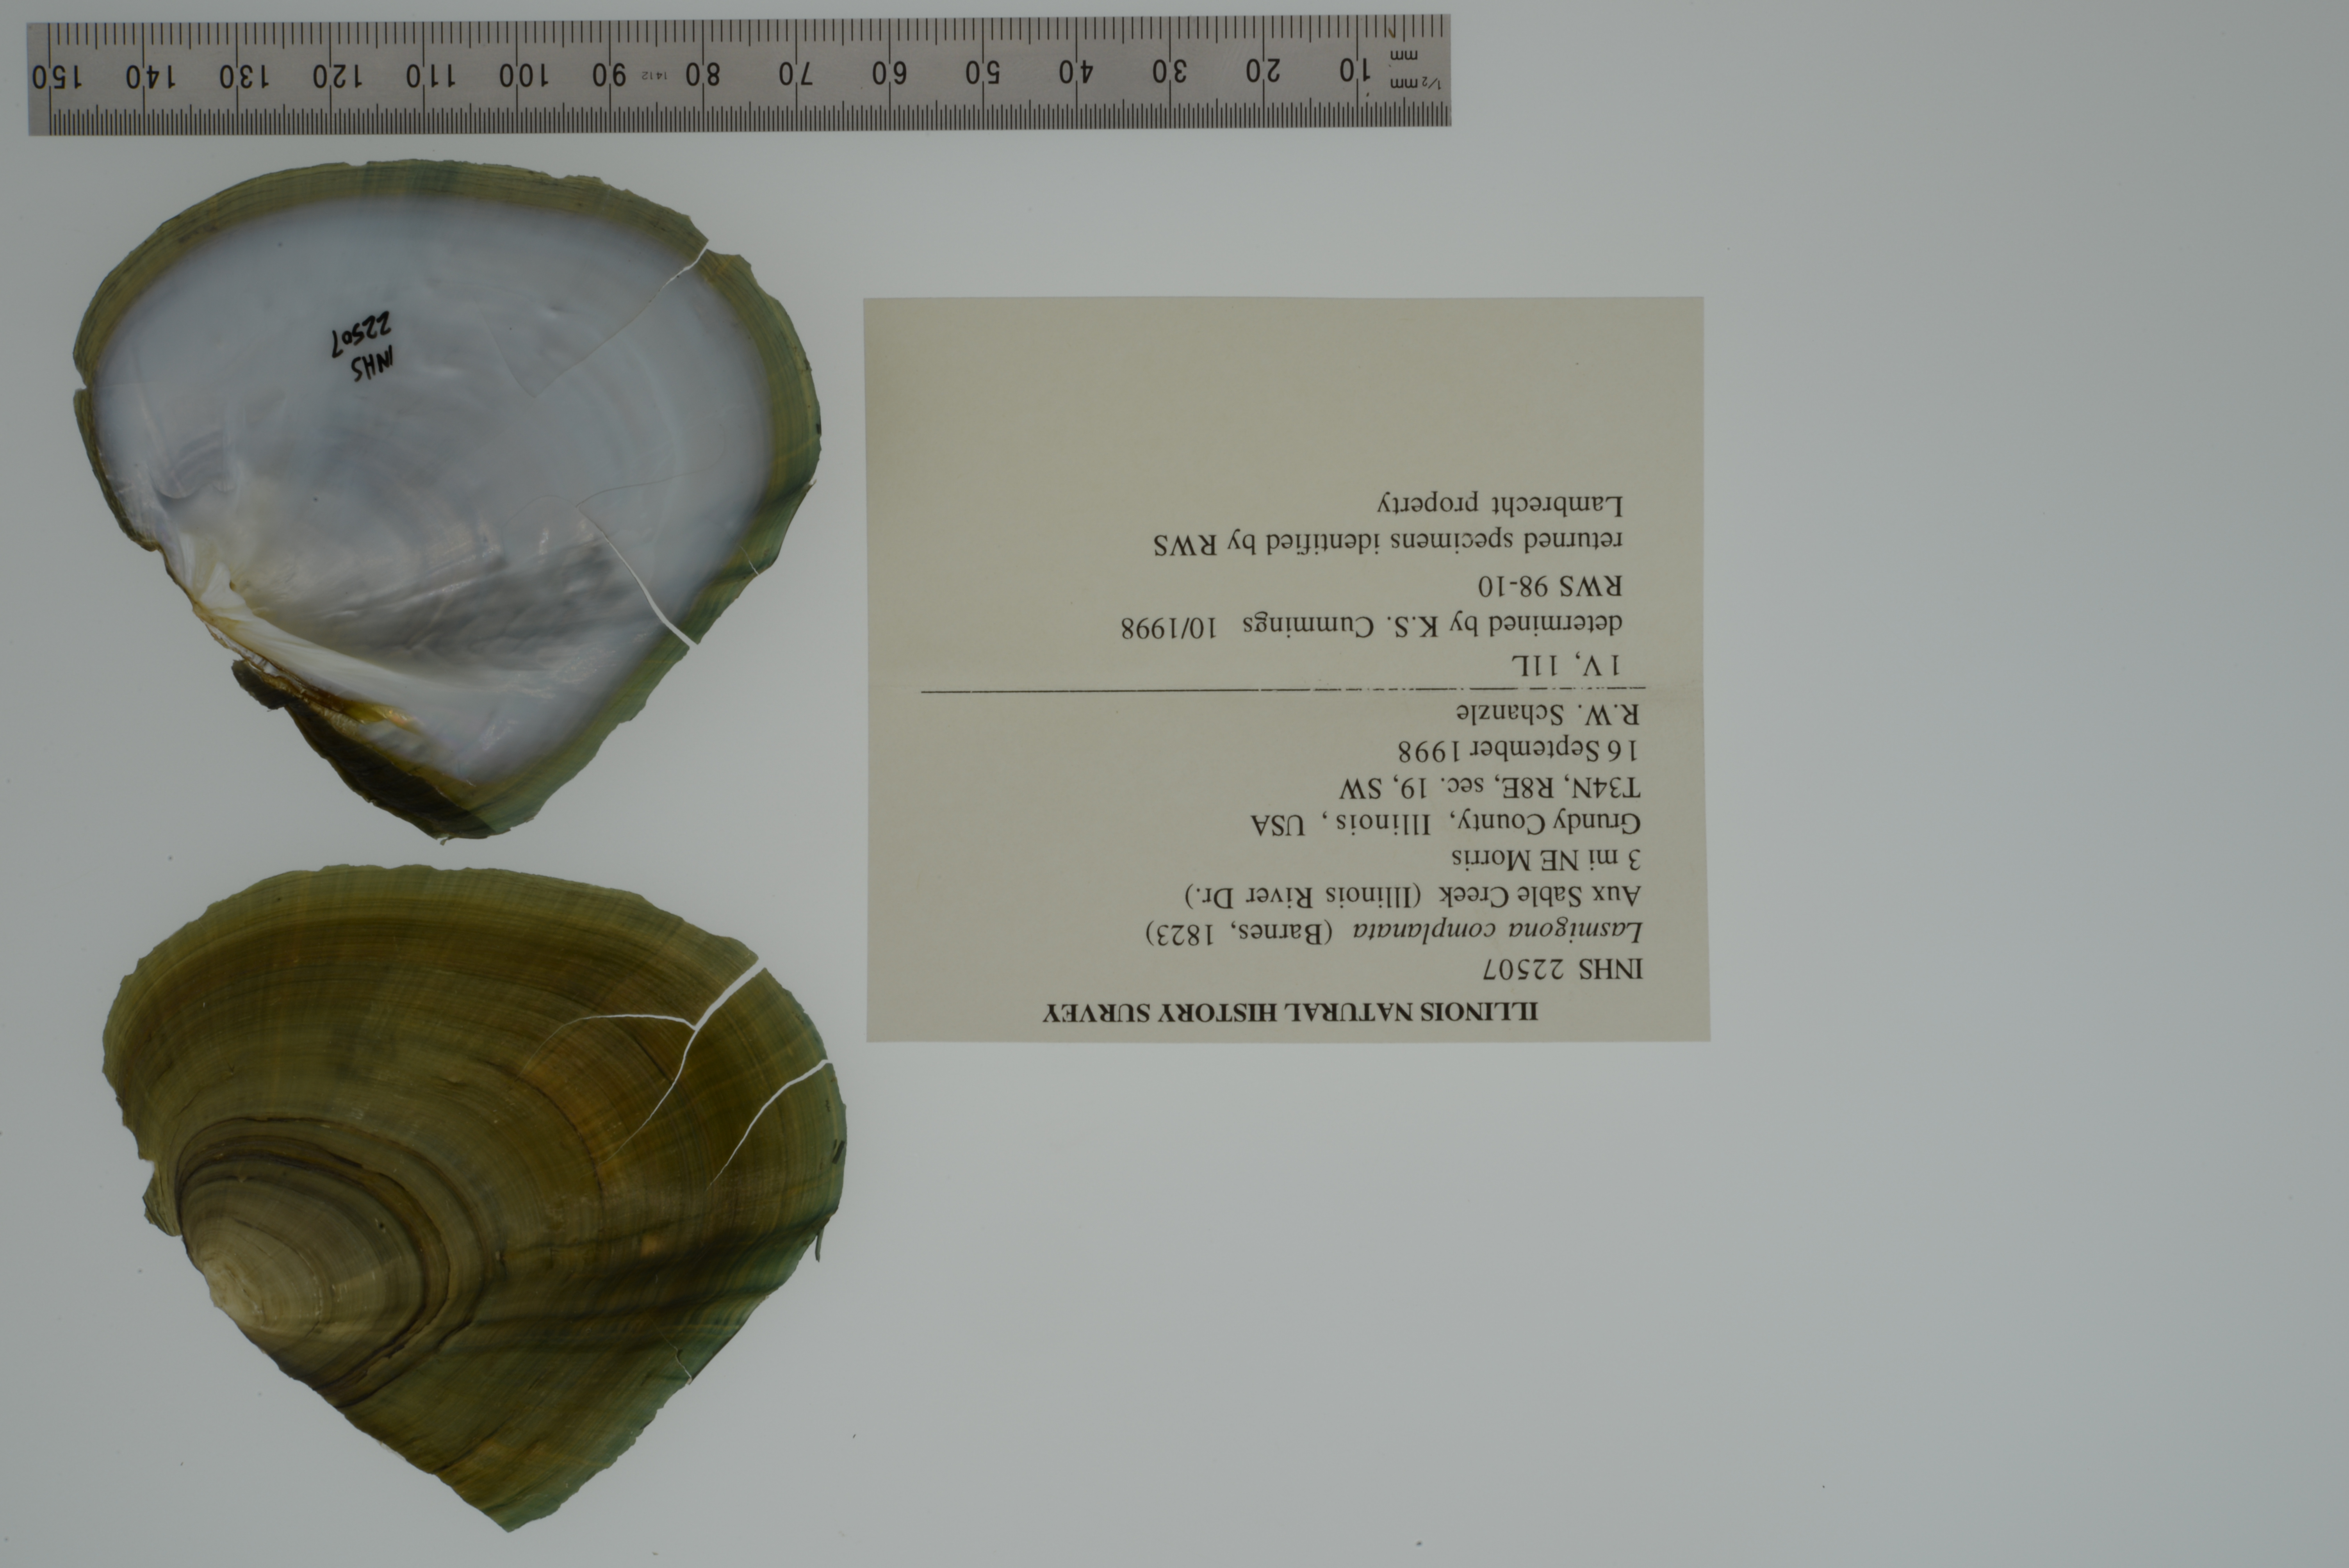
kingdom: Animalia
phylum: Mollusca
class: Bivalvia
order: Unionida
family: Unionidae
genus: Lasmigona
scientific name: Lasmigona complanata
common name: White heelsplitter
